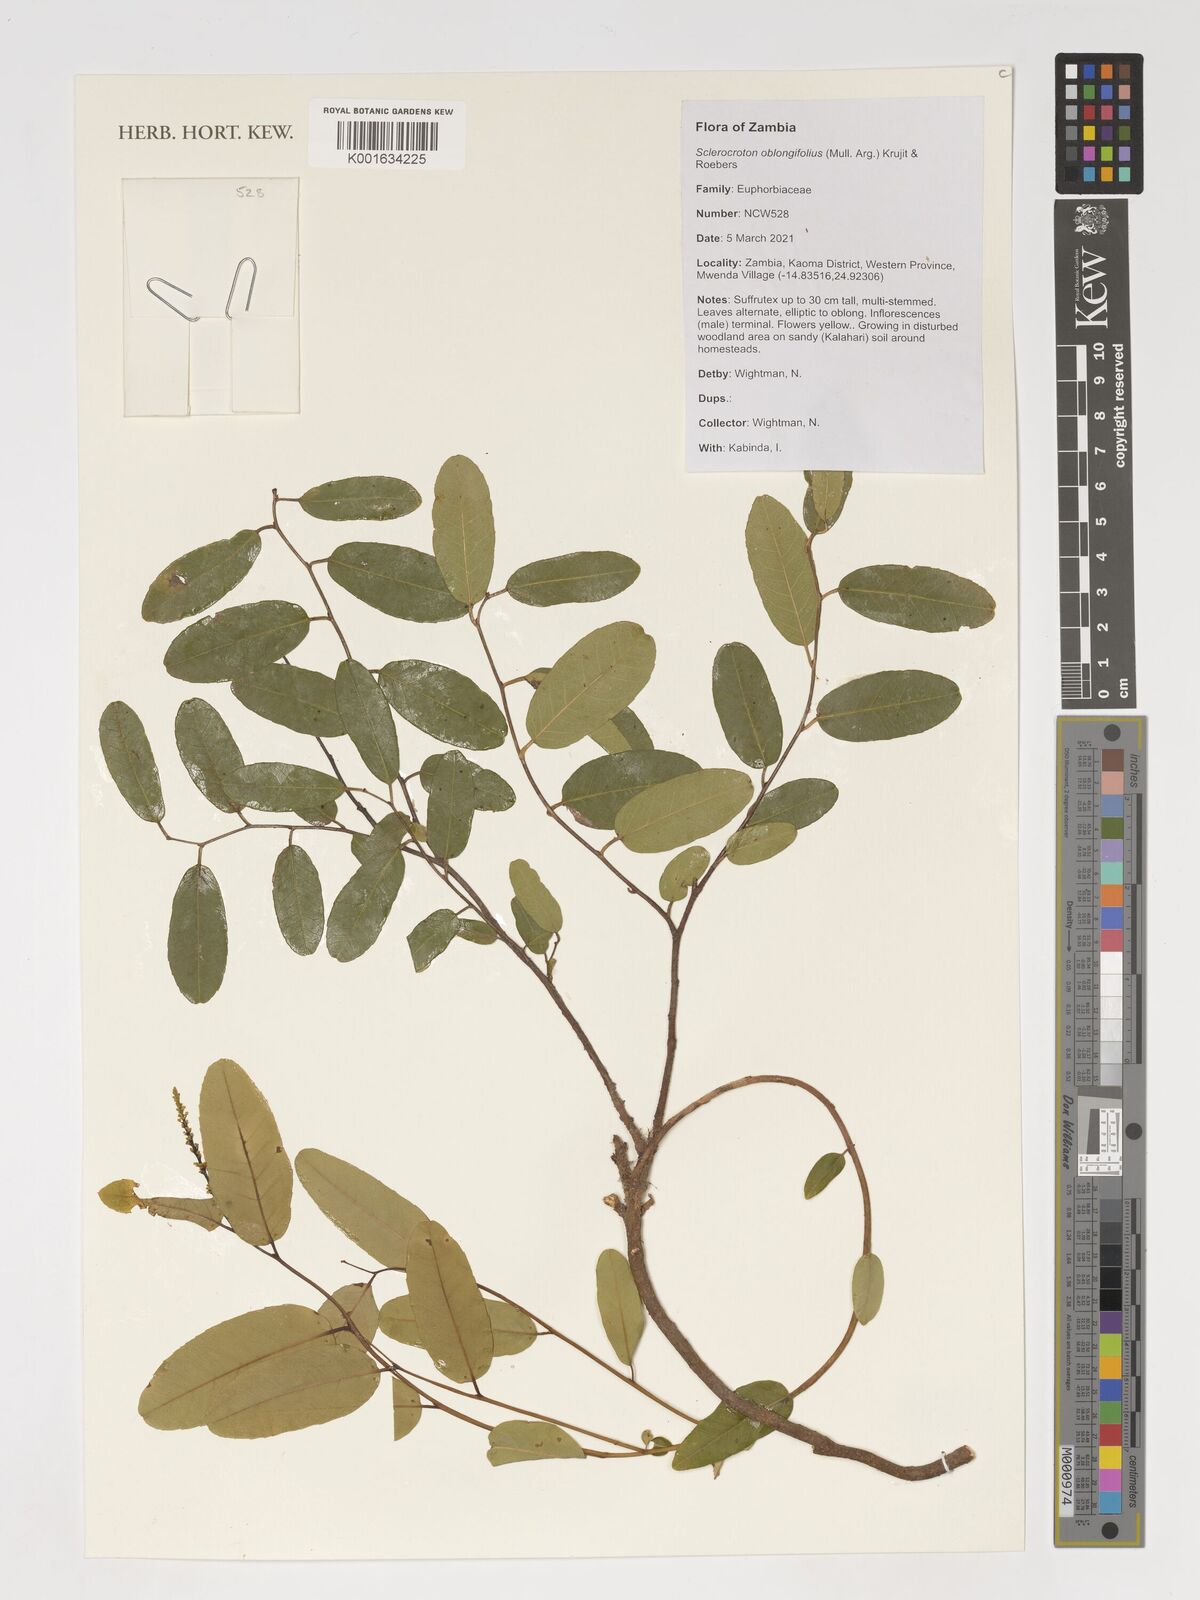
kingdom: Plantae
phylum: Tracheophyta
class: Magnoliopsida
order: Malpighiales
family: Euphorbiaceae
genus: Sclerocroton
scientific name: Sclerocroton oblongifolius
